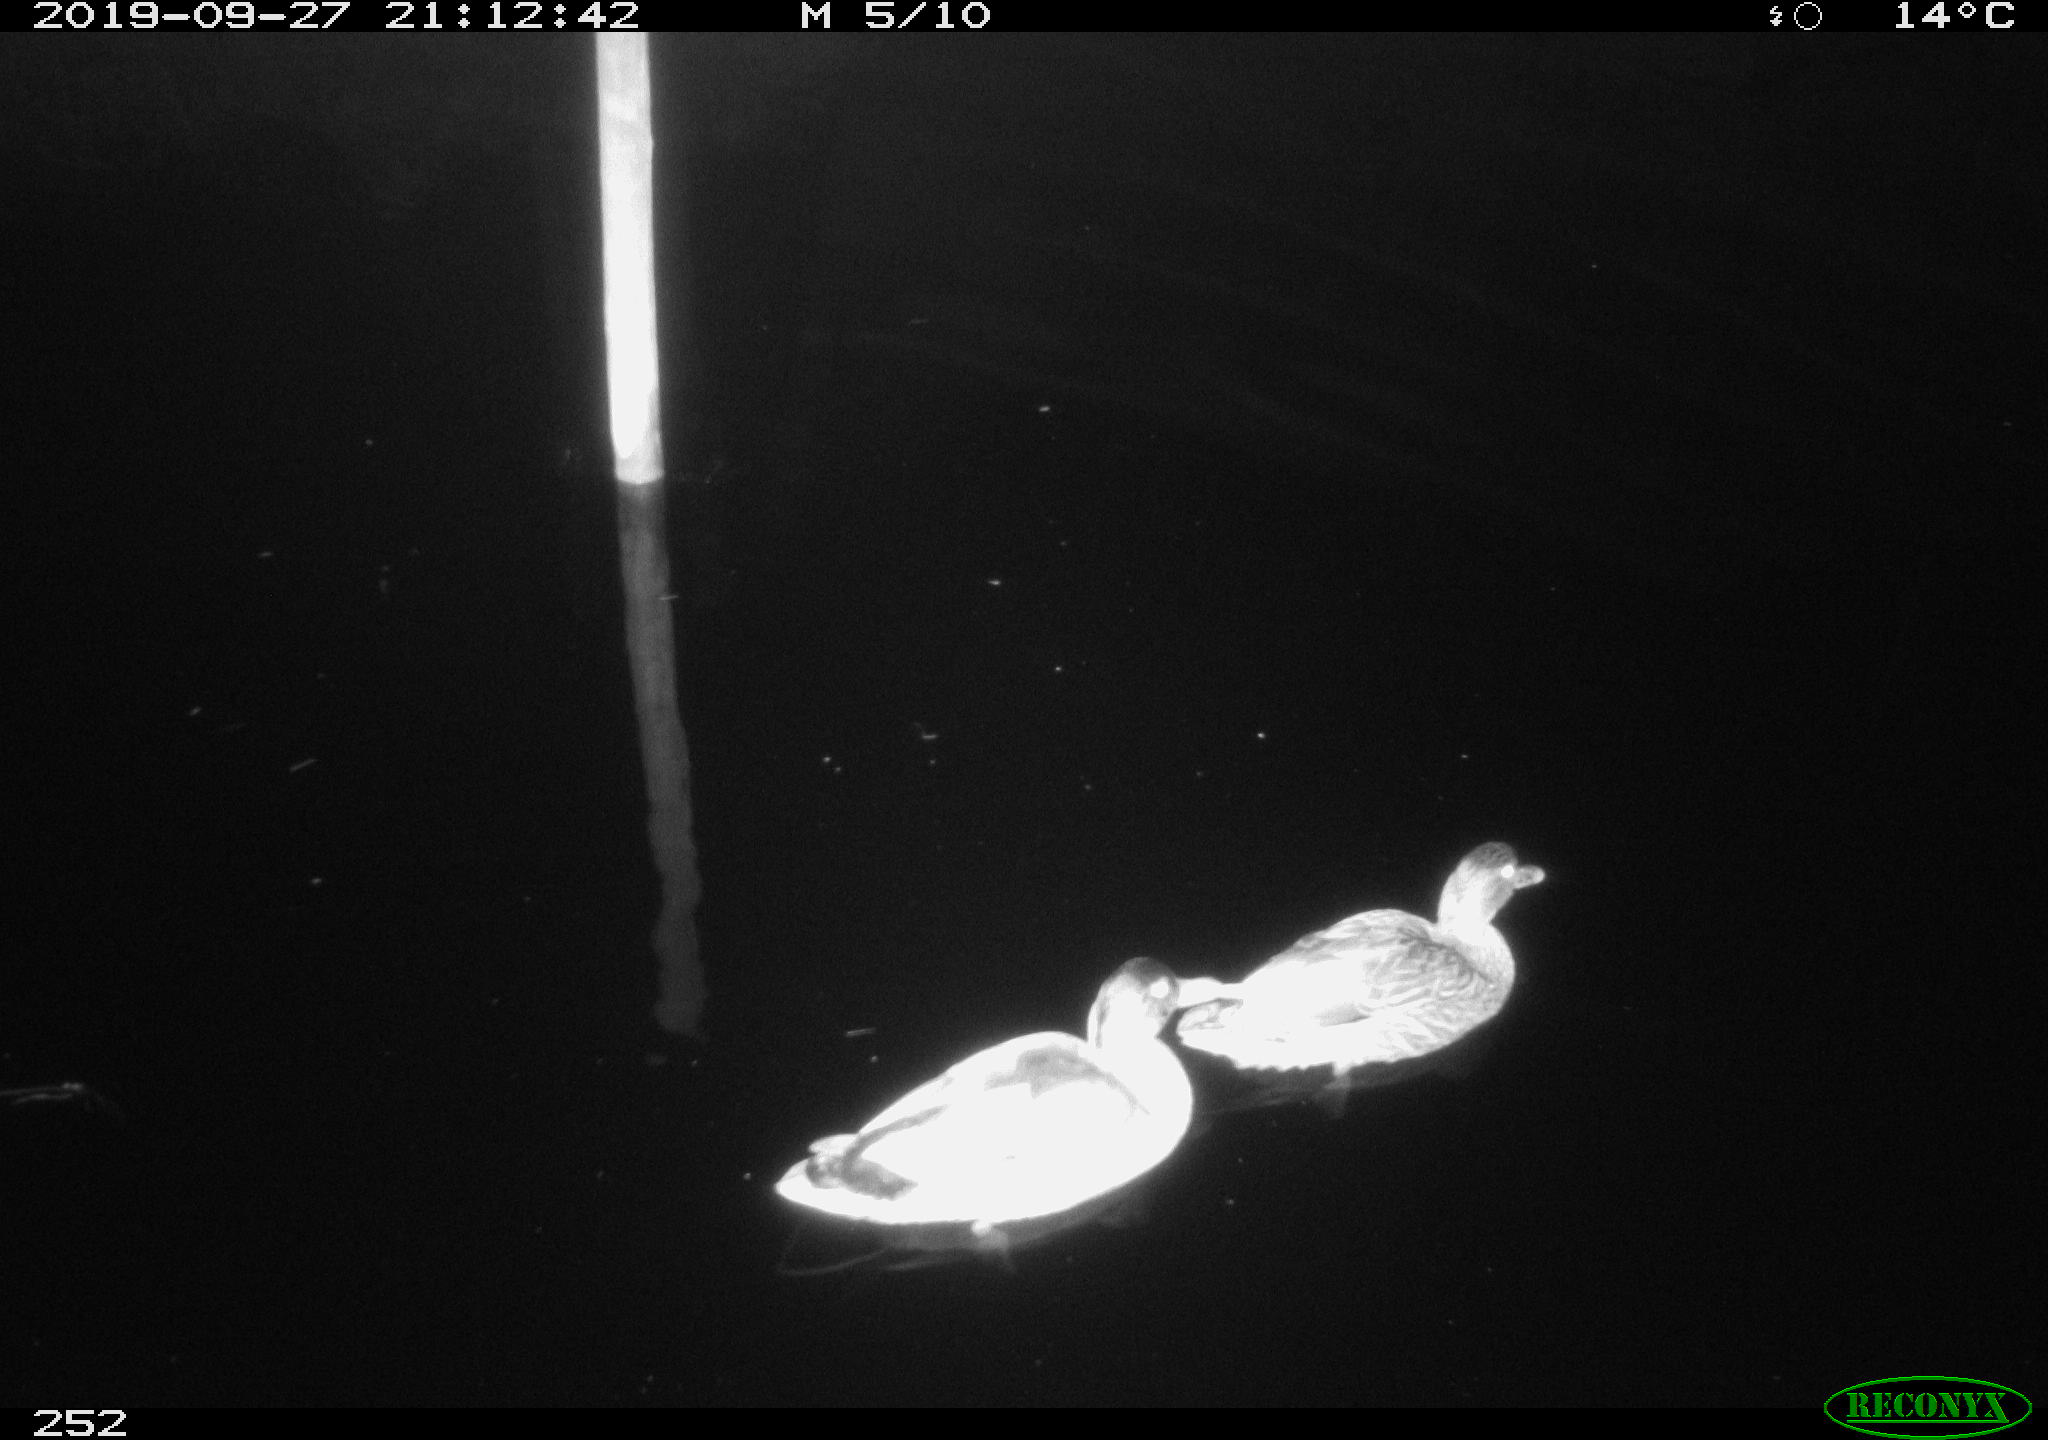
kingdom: Animalia
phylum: Chordata
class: Aves
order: Anseriformes
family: Anatidae
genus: Anas
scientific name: Anas platyrhynchos
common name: Mallard
